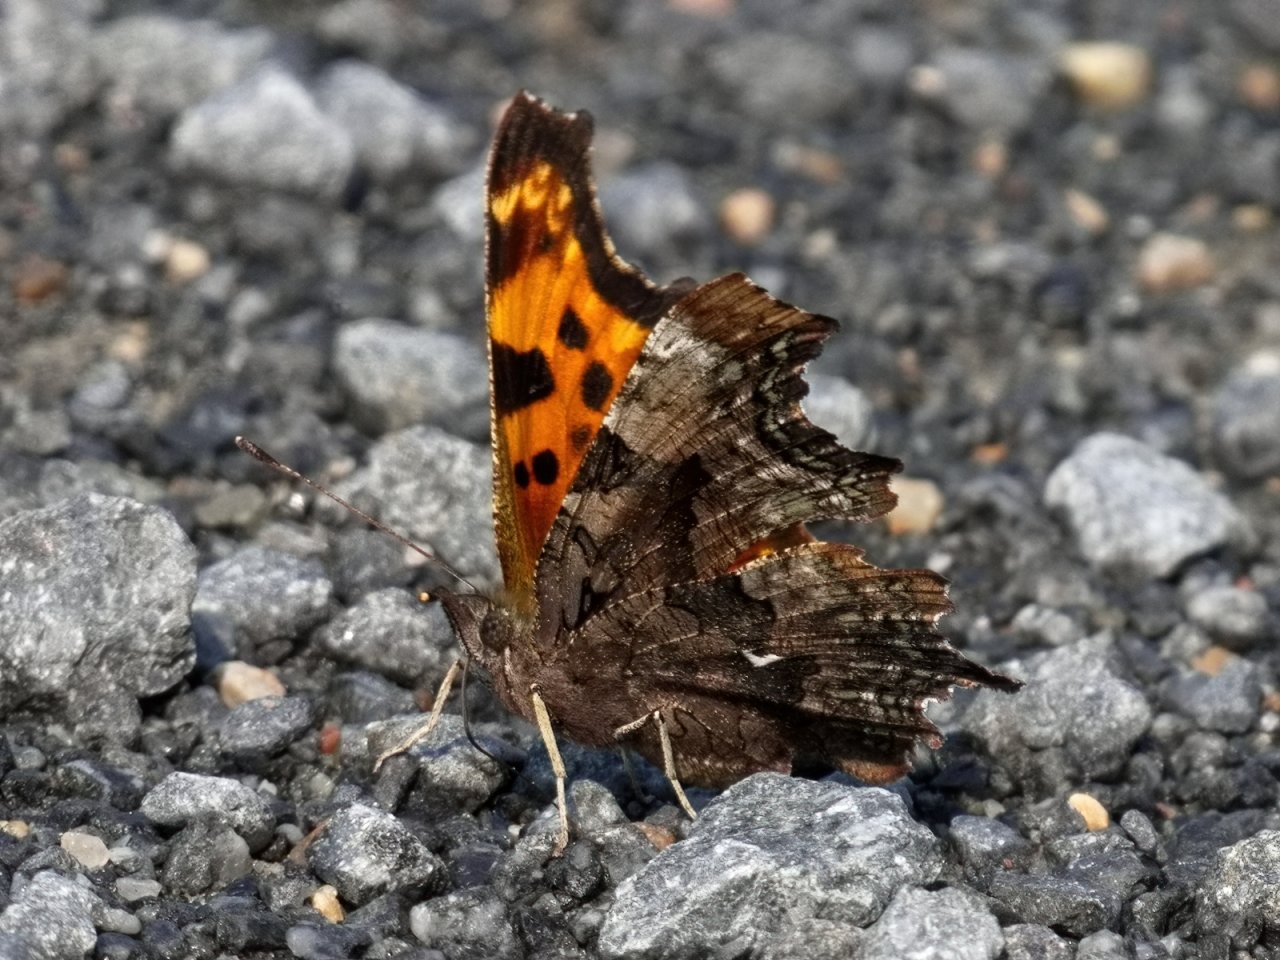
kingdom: Animalia
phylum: Arthropoda
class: Insecta
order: Lepidoptera
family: Nymphalidae
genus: Polygonia
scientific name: Polygonia faunus
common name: Green Comma
